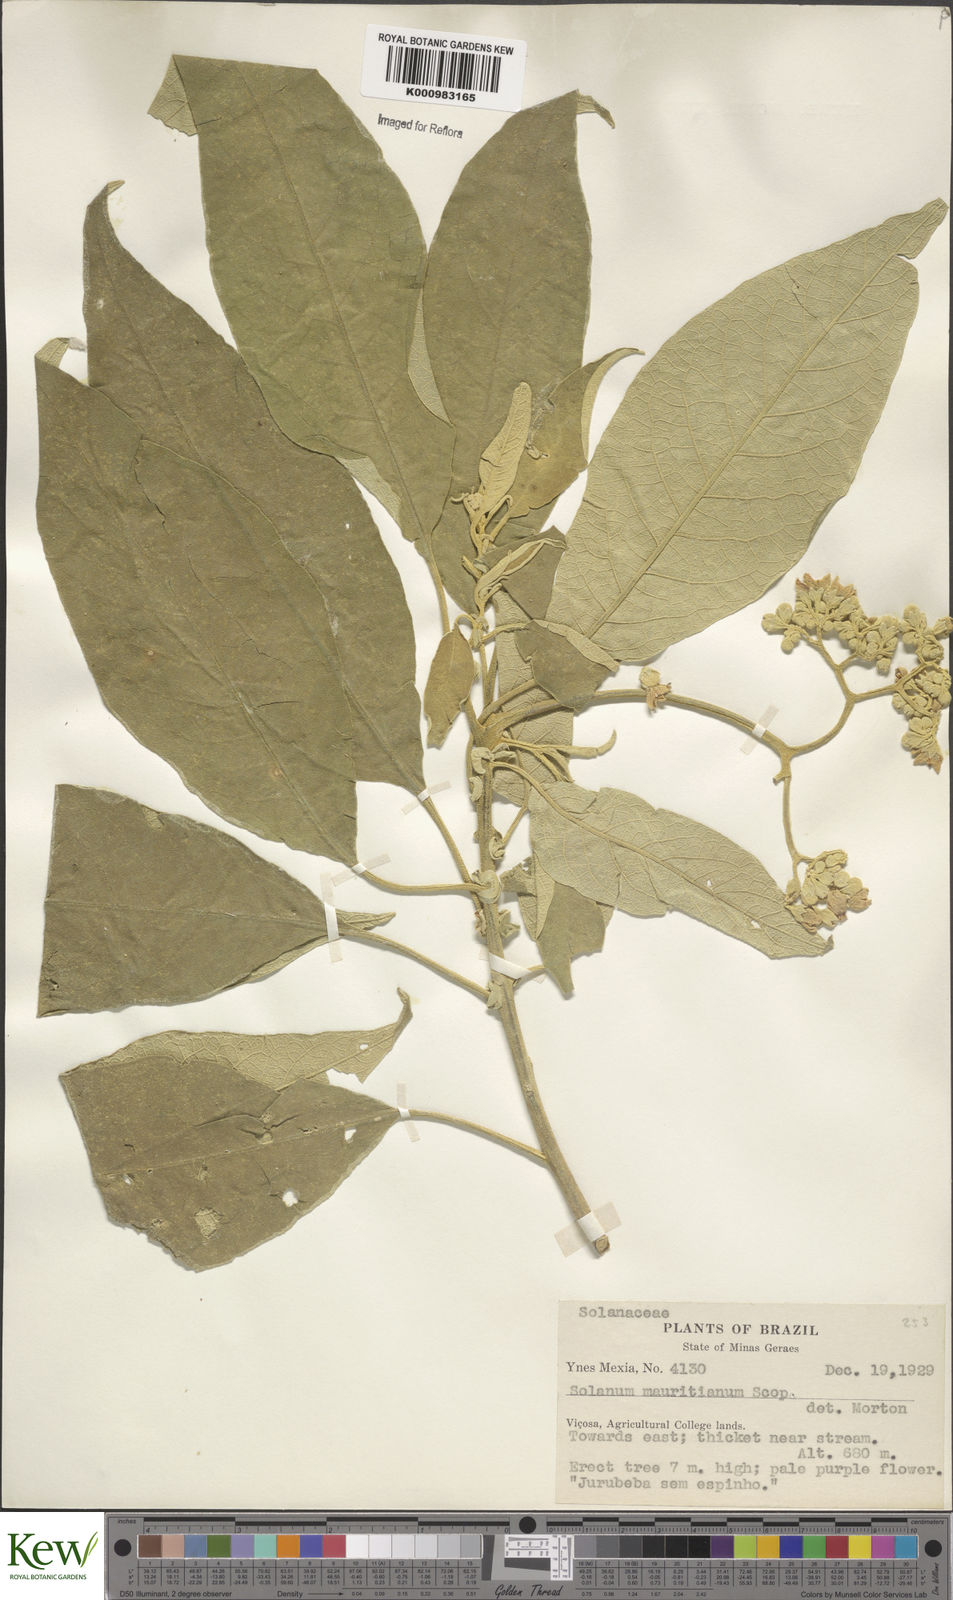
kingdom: Plantae
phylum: Tracheophyta
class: Magnoliopsida
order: Solanales
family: Solanaceae
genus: Solanum
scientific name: Solanum granulosoleprosum
